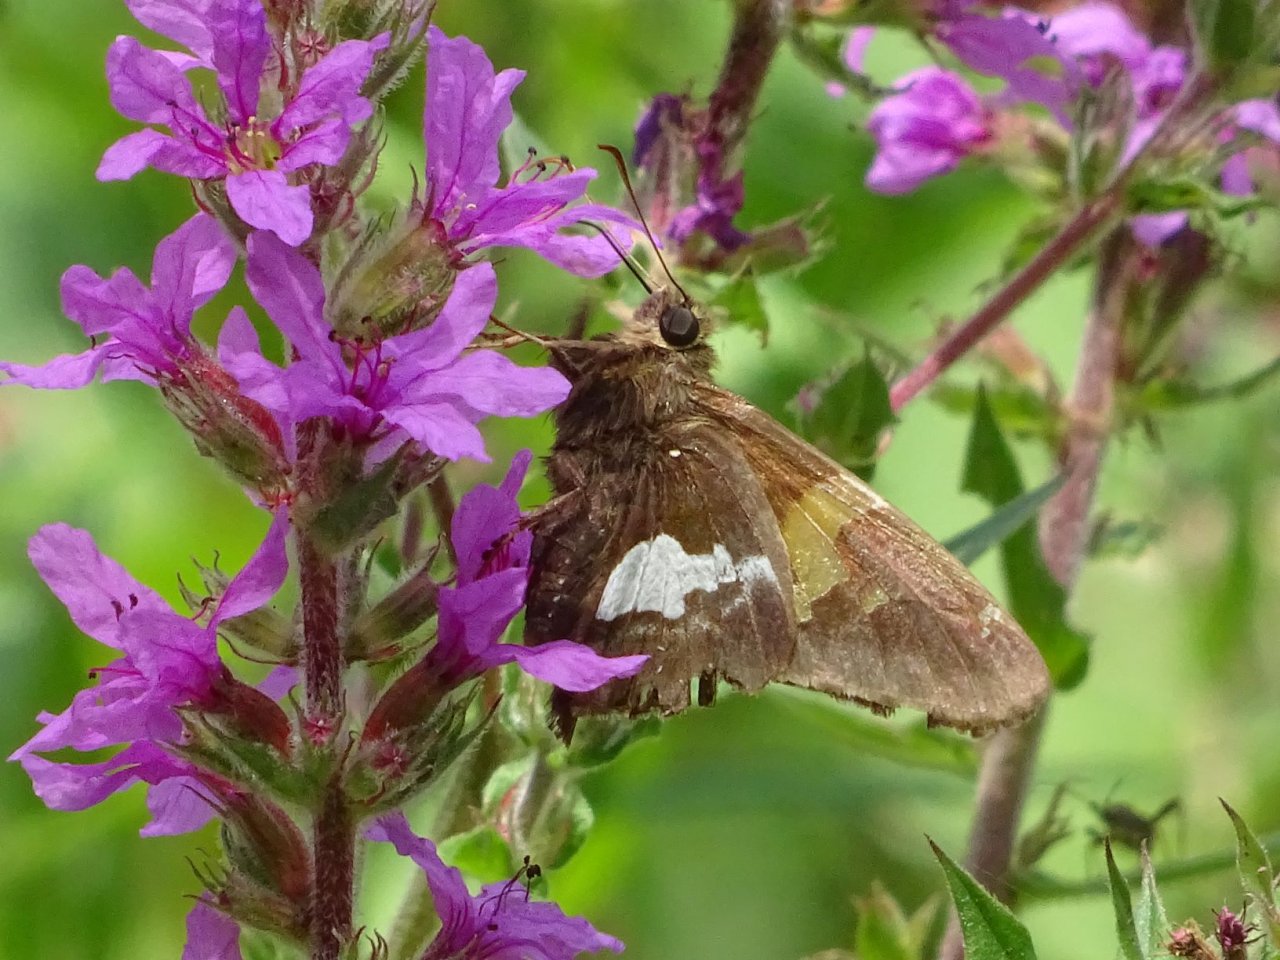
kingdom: Animalia
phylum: Arthropoda
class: Insecta
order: Lepidoptera
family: Hesperiidae
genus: Epargyreus
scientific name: Epargyreus clarus
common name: Silver-spotted Skipper
